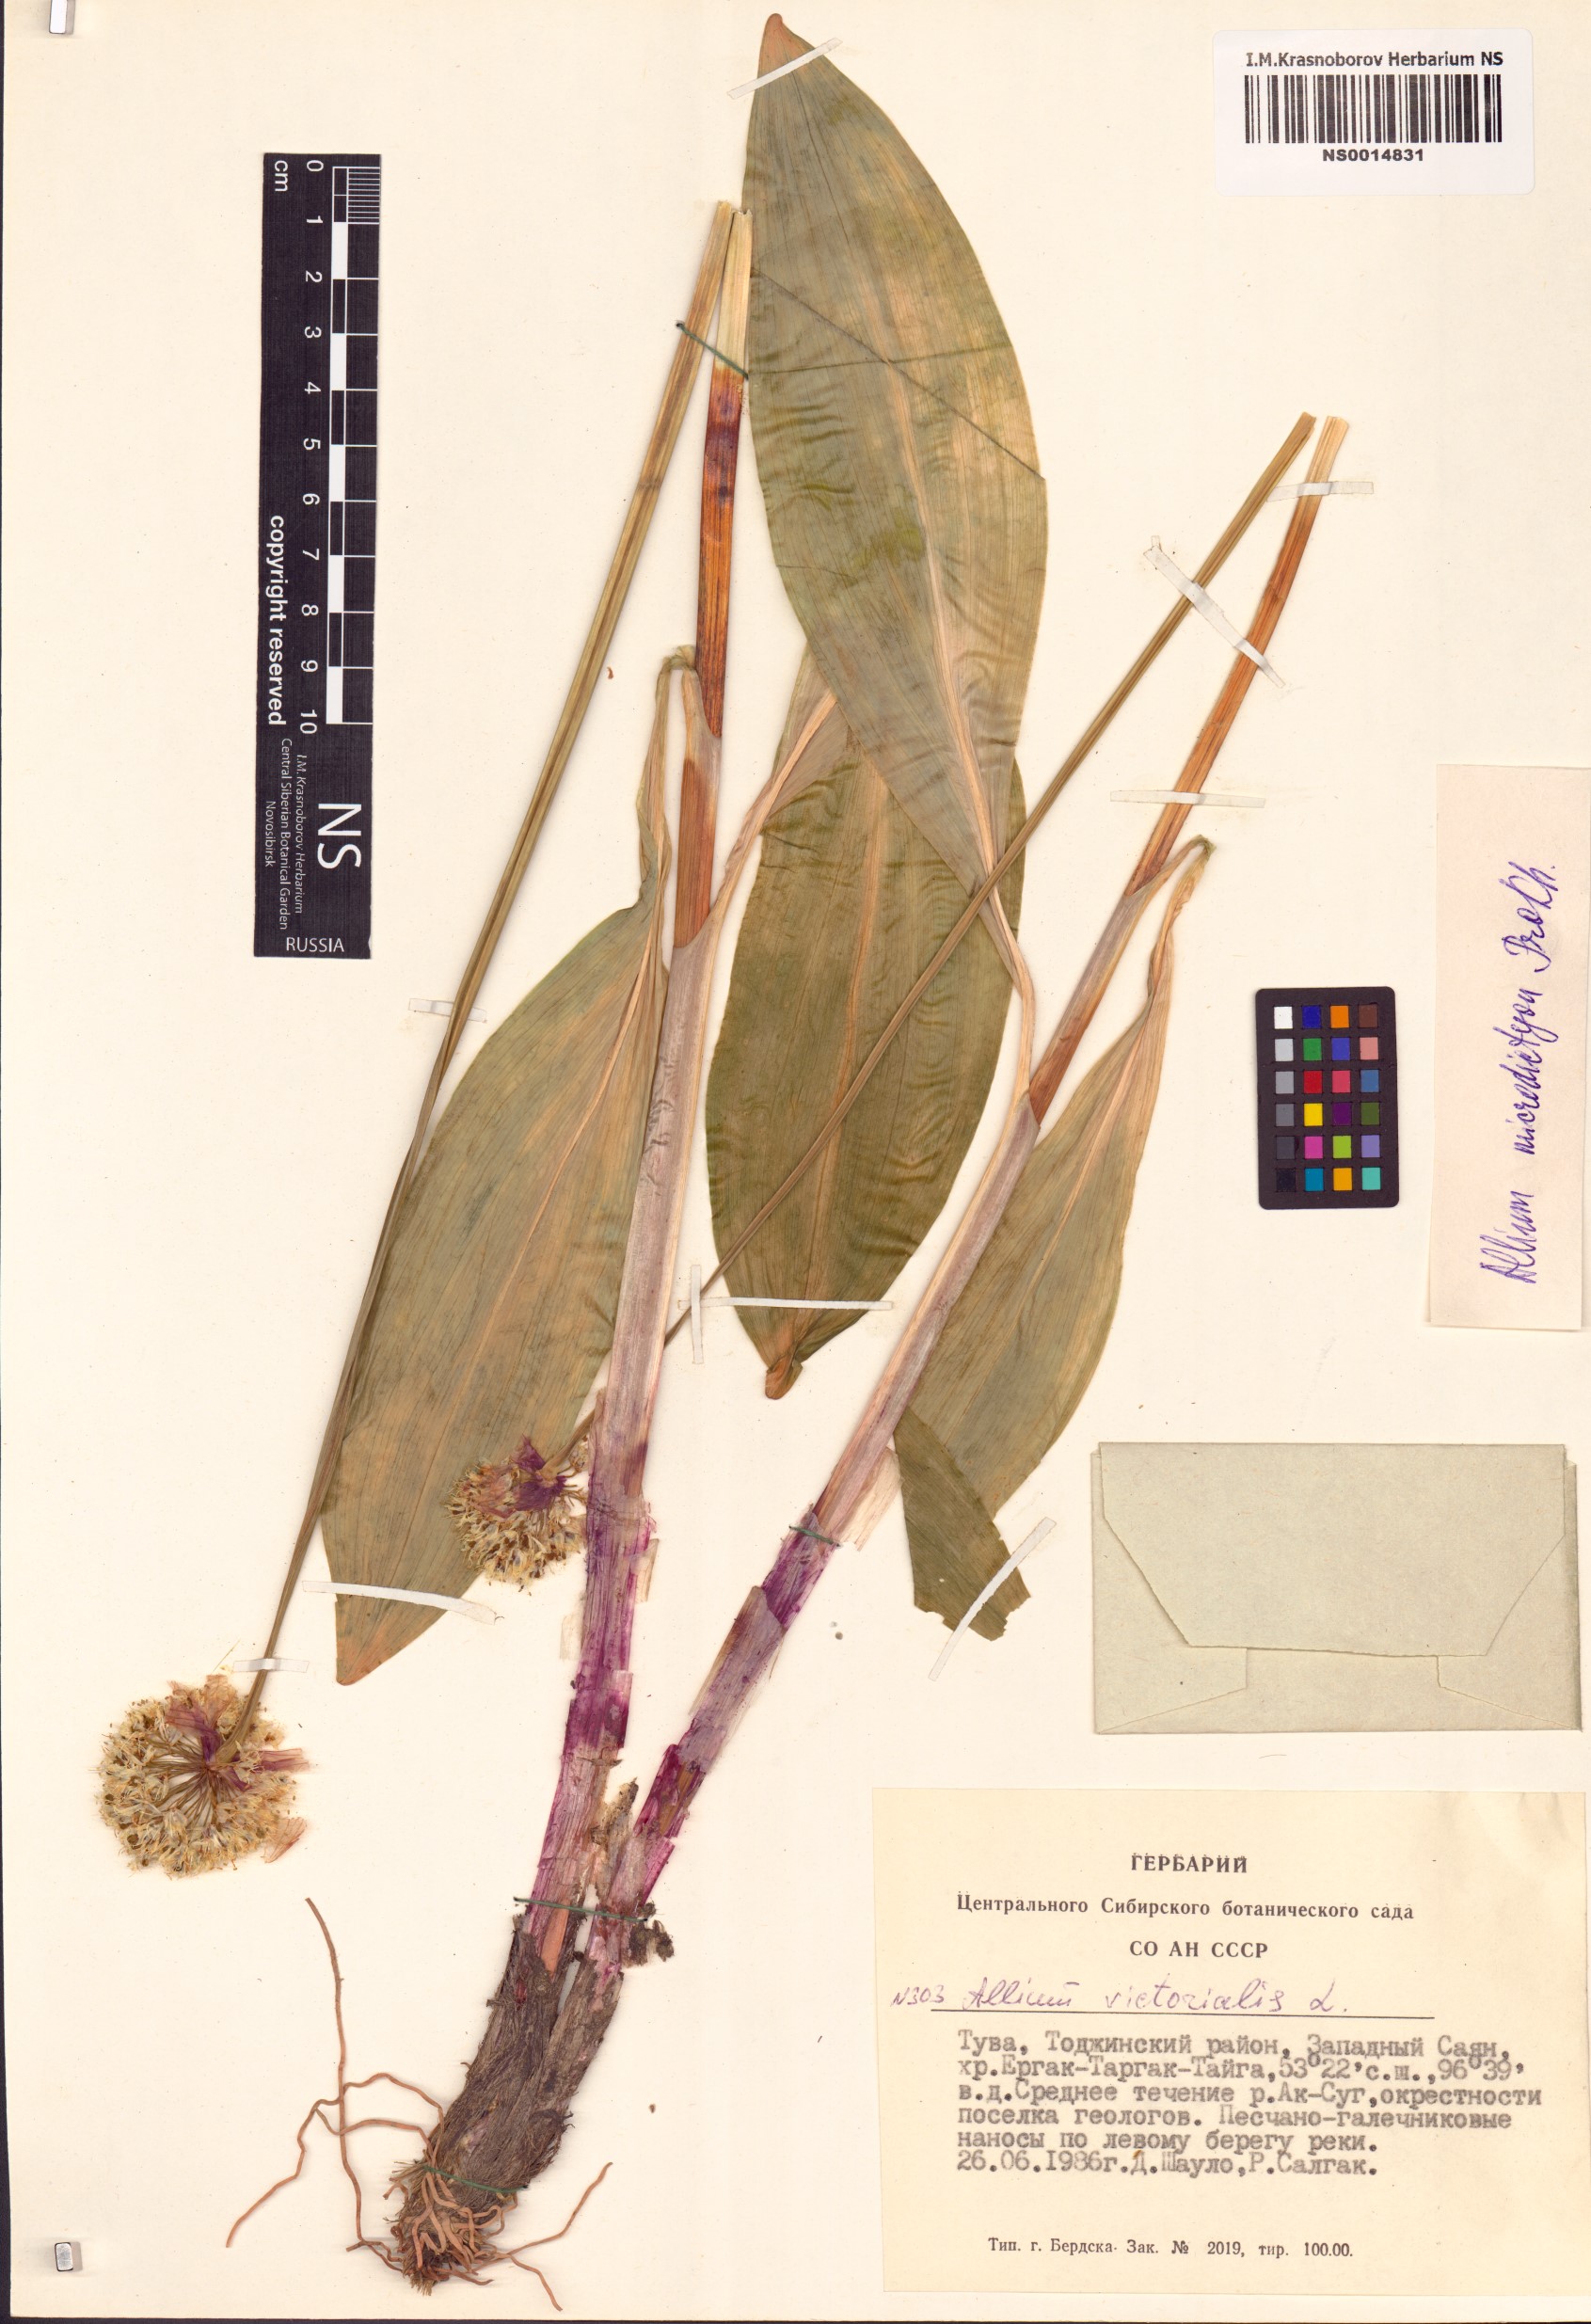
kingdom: Plantae
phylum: Tracheophyta
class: Liliopsida
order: Asparagales
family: Amaryllidaceae
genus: Allium
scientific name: Allium microdictyon
